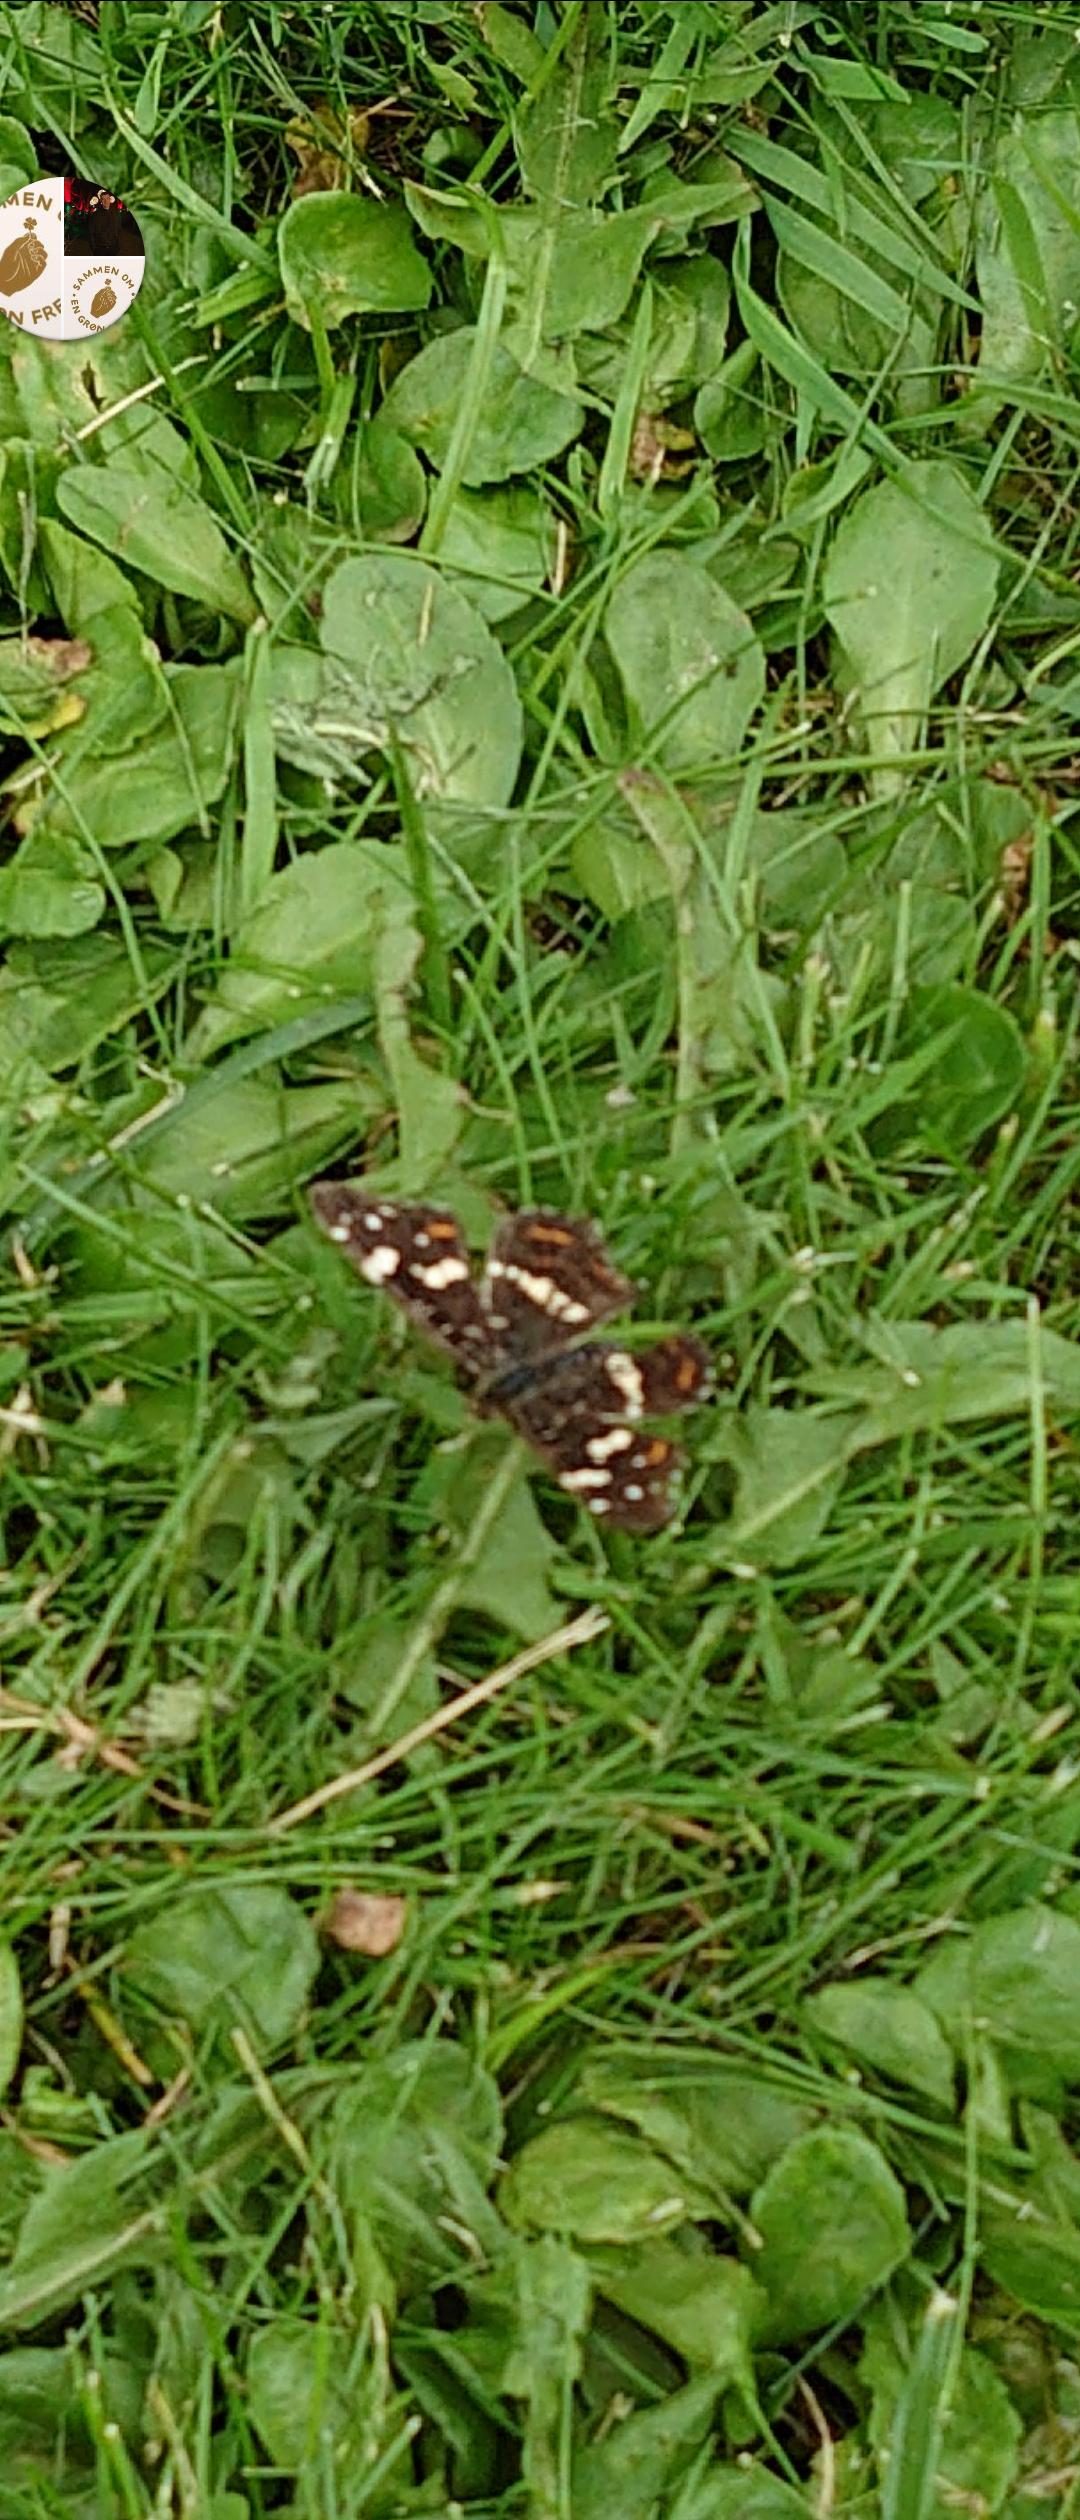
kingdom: Animalia
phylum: Arthropoda
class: Insecta
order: Lepidoptera
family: Nymphalidae
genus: Araschnia
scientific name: Araschnia levana
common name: Nældesommerfugl
